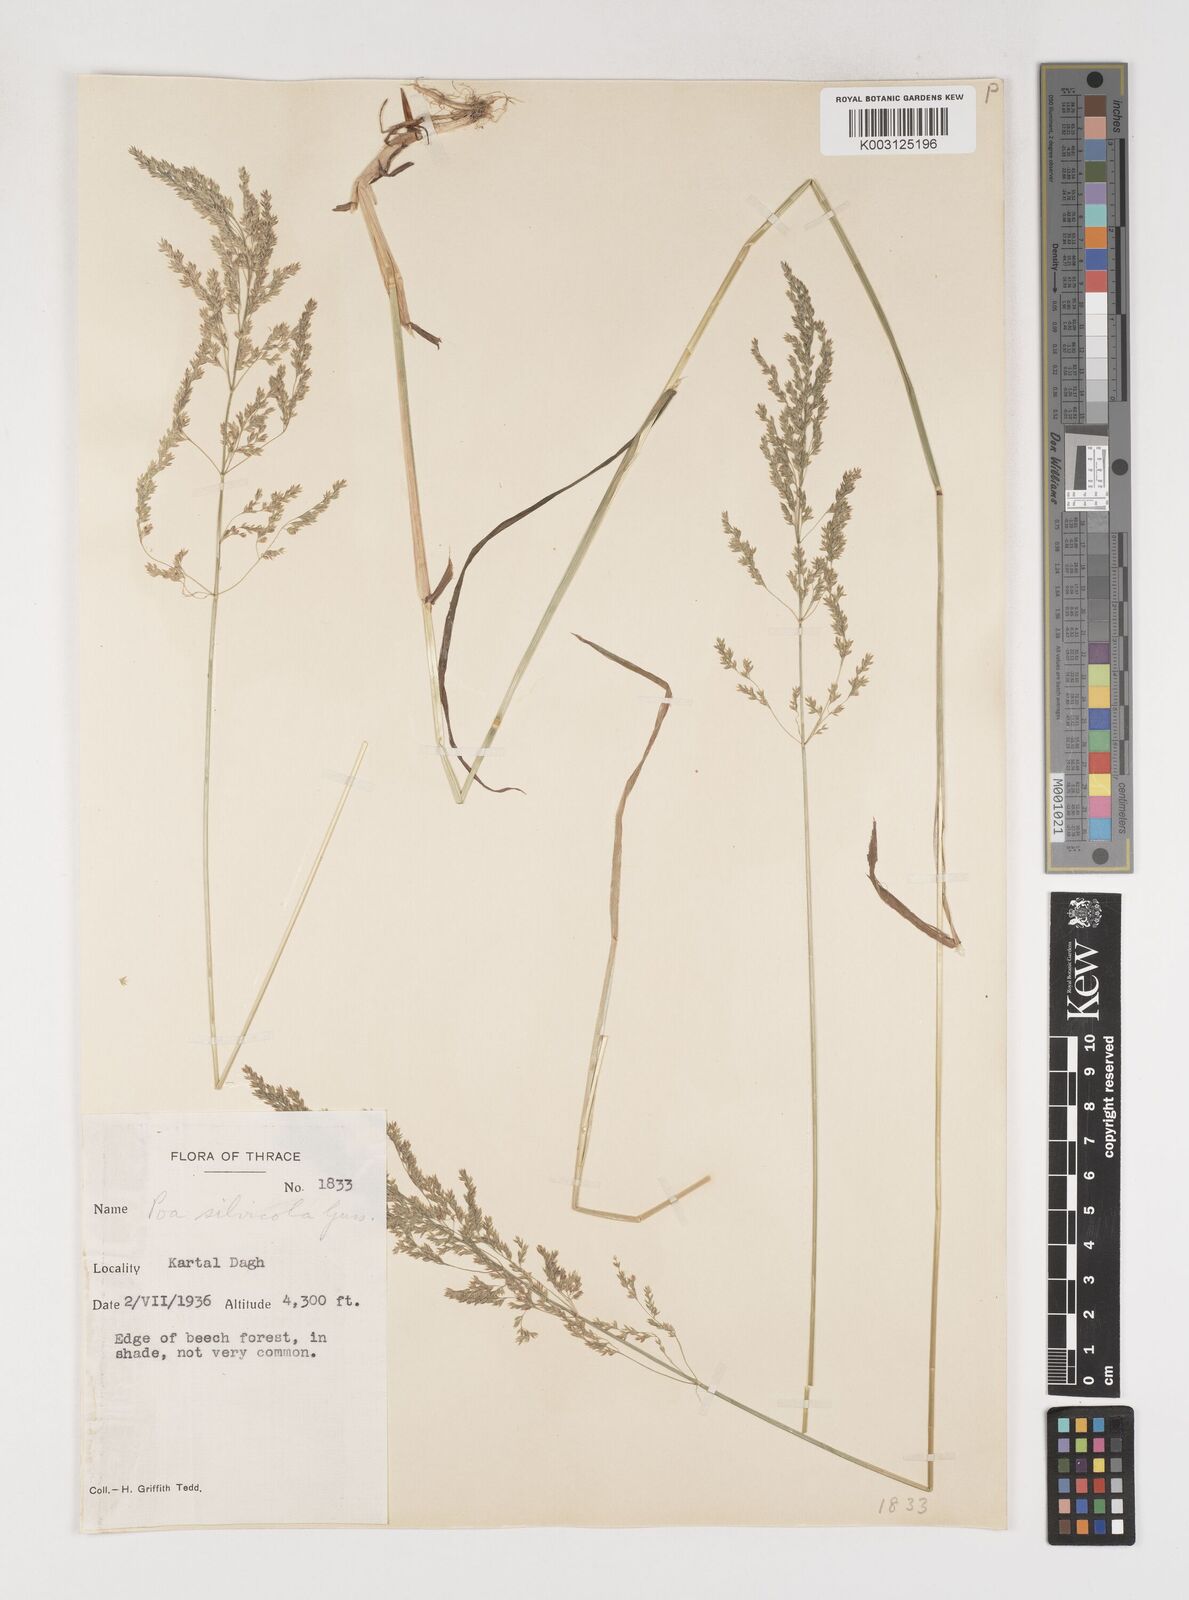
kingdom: Plantae
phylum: Tracheophyta
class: Liliopsida
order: Poales
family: Poaceae
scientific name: Poaceae
